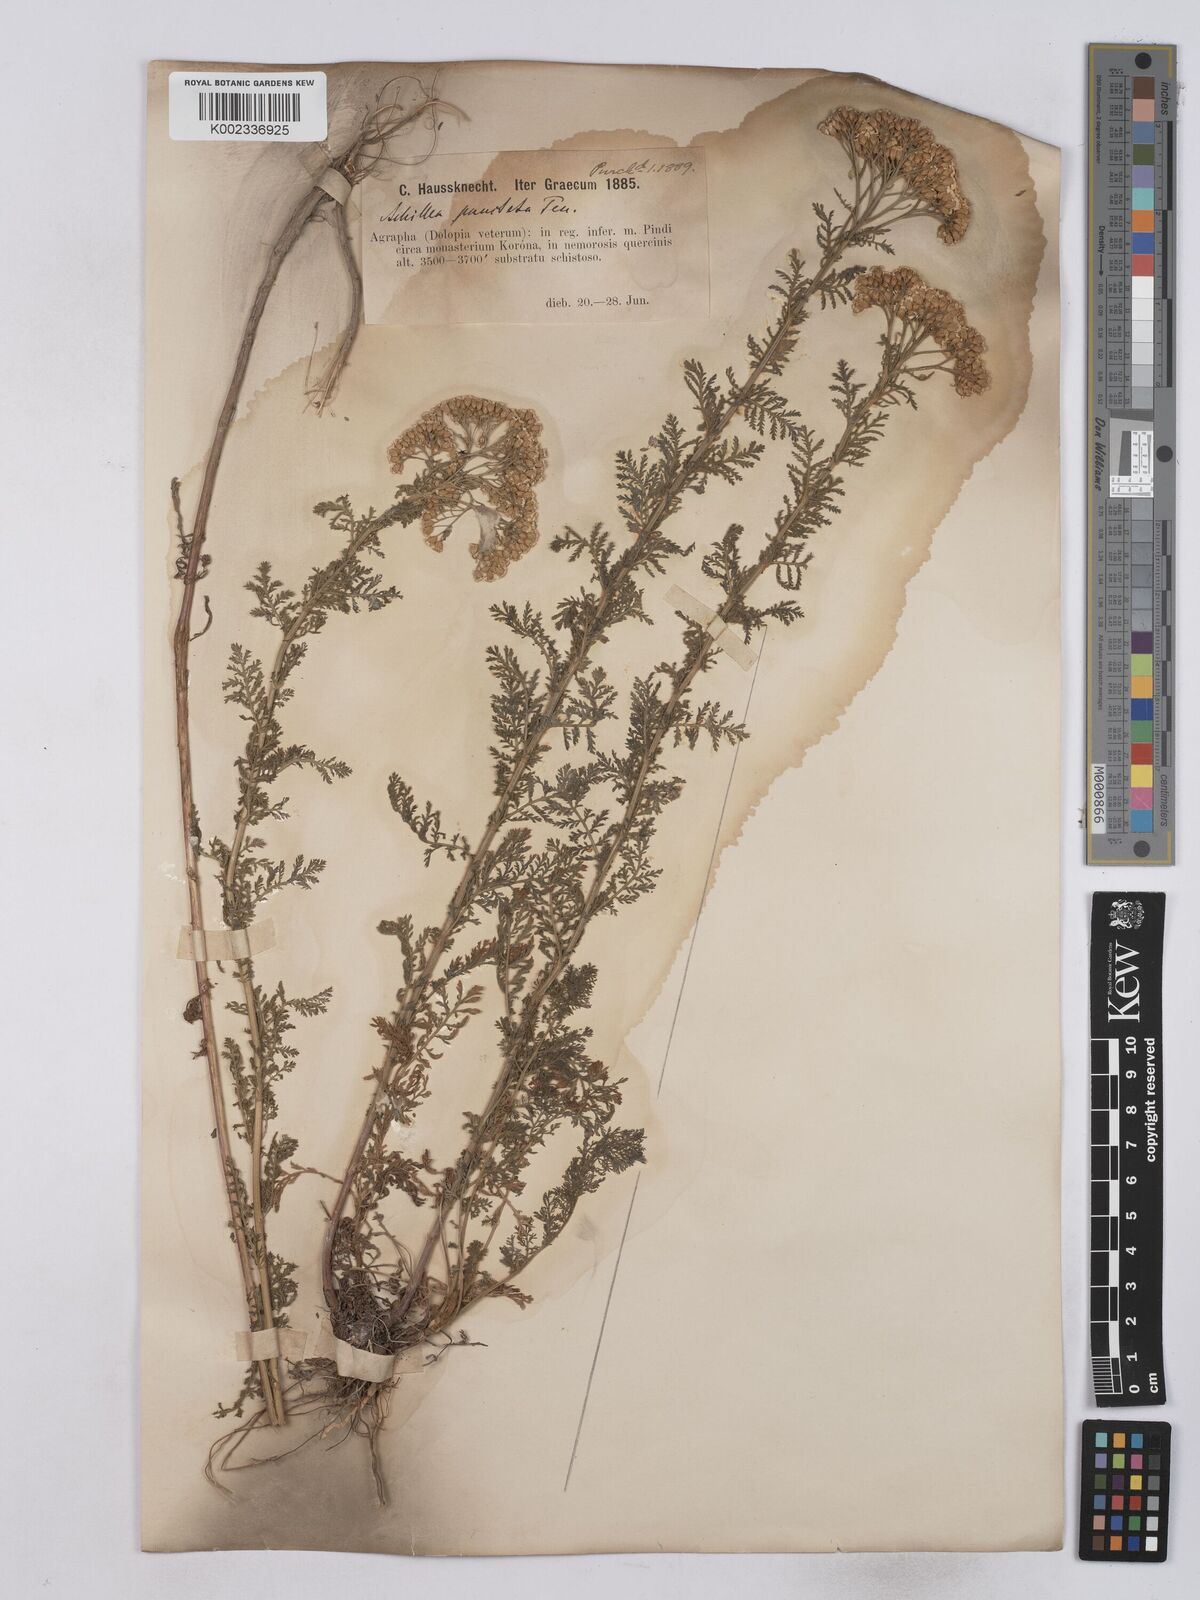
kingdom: Plantae
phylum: Tracheophyta
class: Magnoliopsida
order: Asterales
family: Asteraceae
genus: Achillea
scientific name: Achillea odorata
